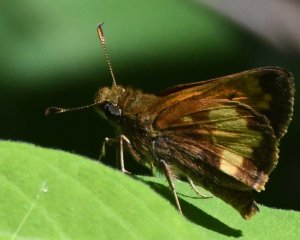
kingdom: Animalia
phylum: Arthropoda
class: Insecta
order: Lepidoptera
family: Hesperiidae
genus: Polites
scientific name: Polites coras
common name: Peck's Skipper
